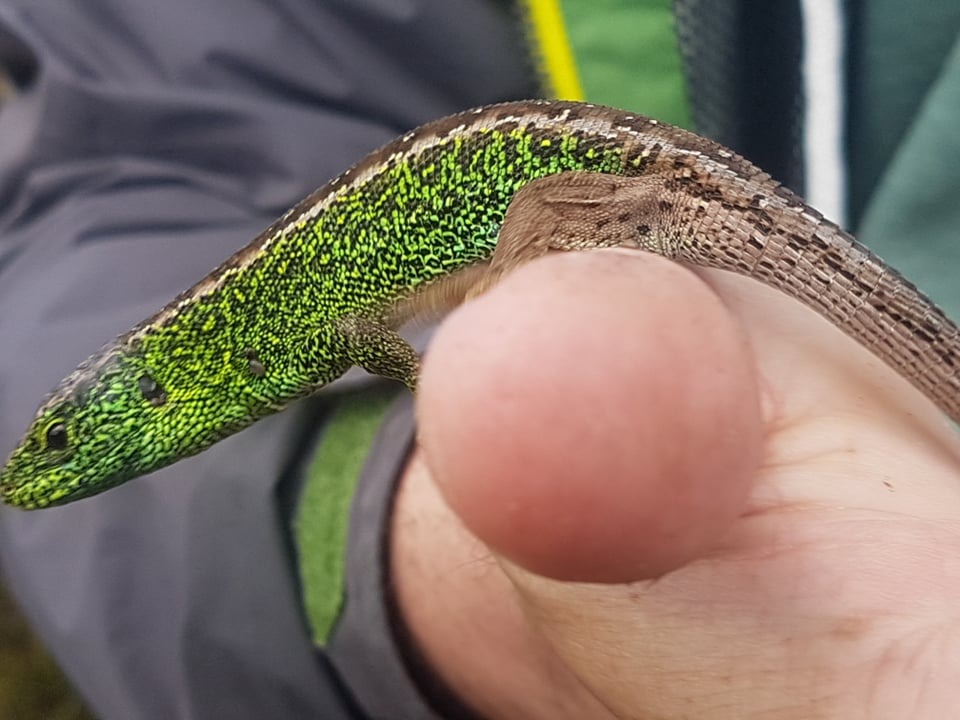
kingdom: Animalia
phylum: Chordata
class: Squamata
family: Lacertidae
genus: Lacerta
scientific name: Lacerta agilis
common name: Markfirben
